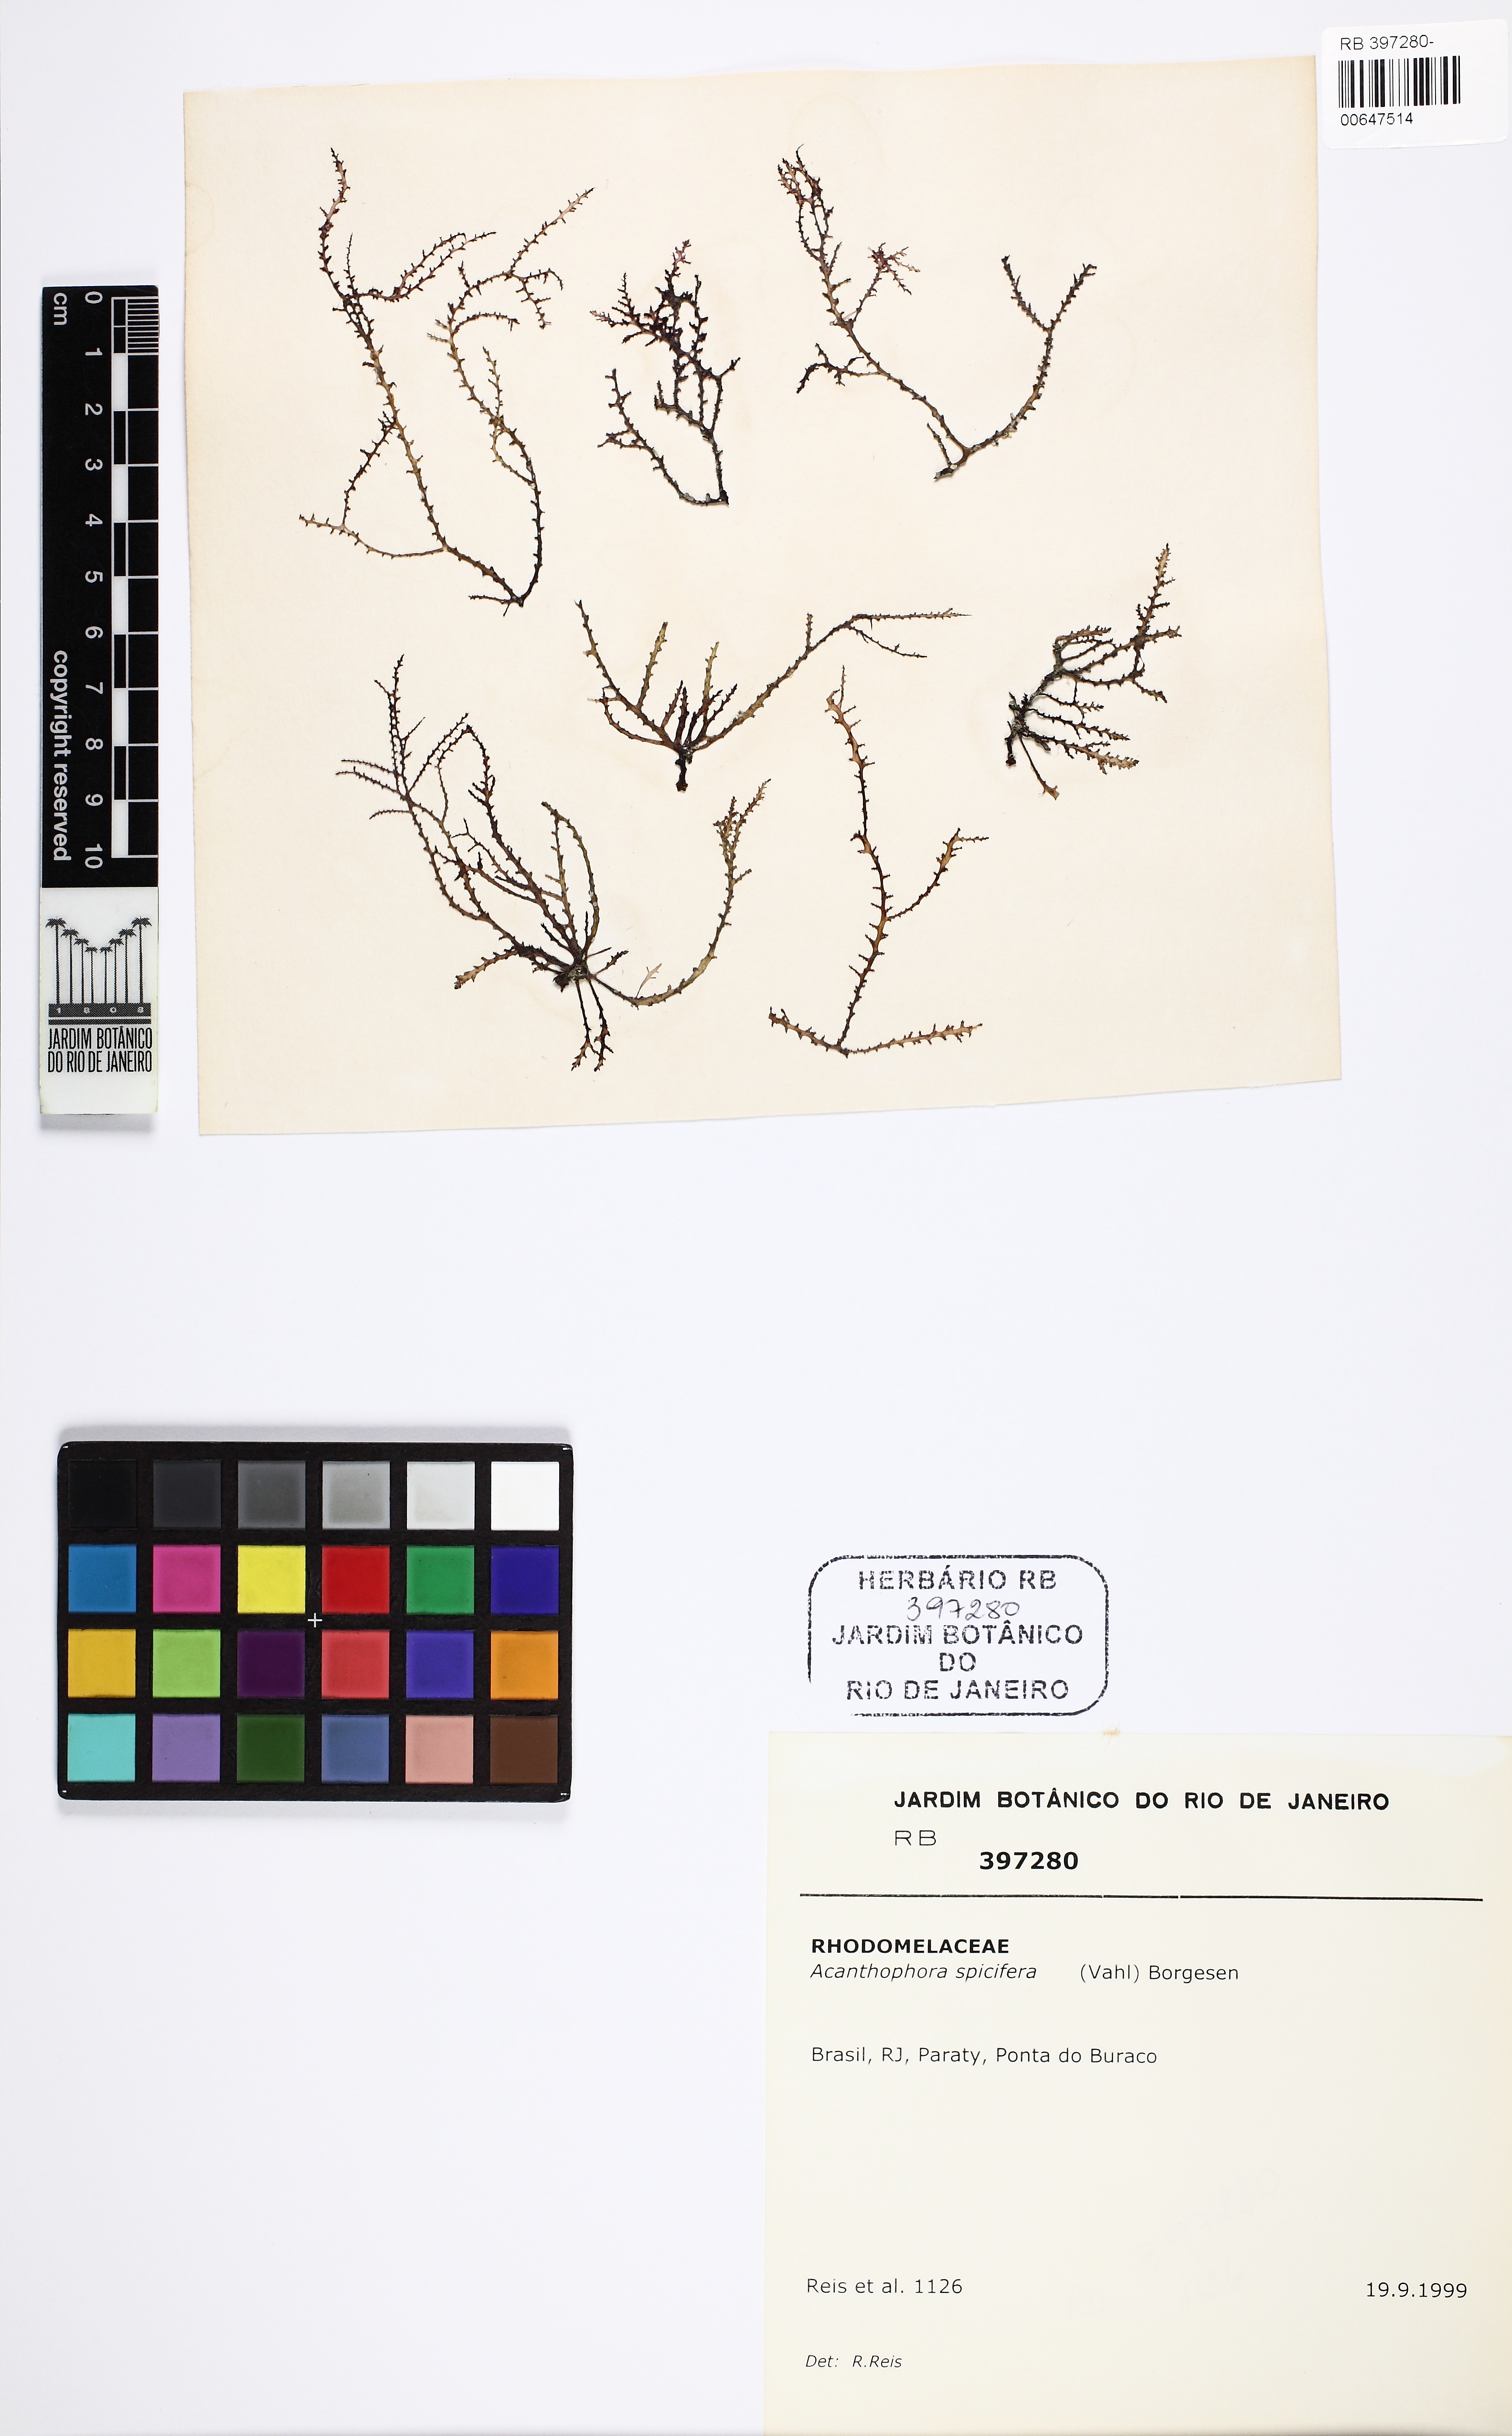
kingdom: Plantae
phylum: Rhodophyta
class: Florideophyceae
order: Ceramiales
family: Rhodomelaceae
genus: Acanthophora
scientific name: Acanthophora spicifera
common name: Red algae
